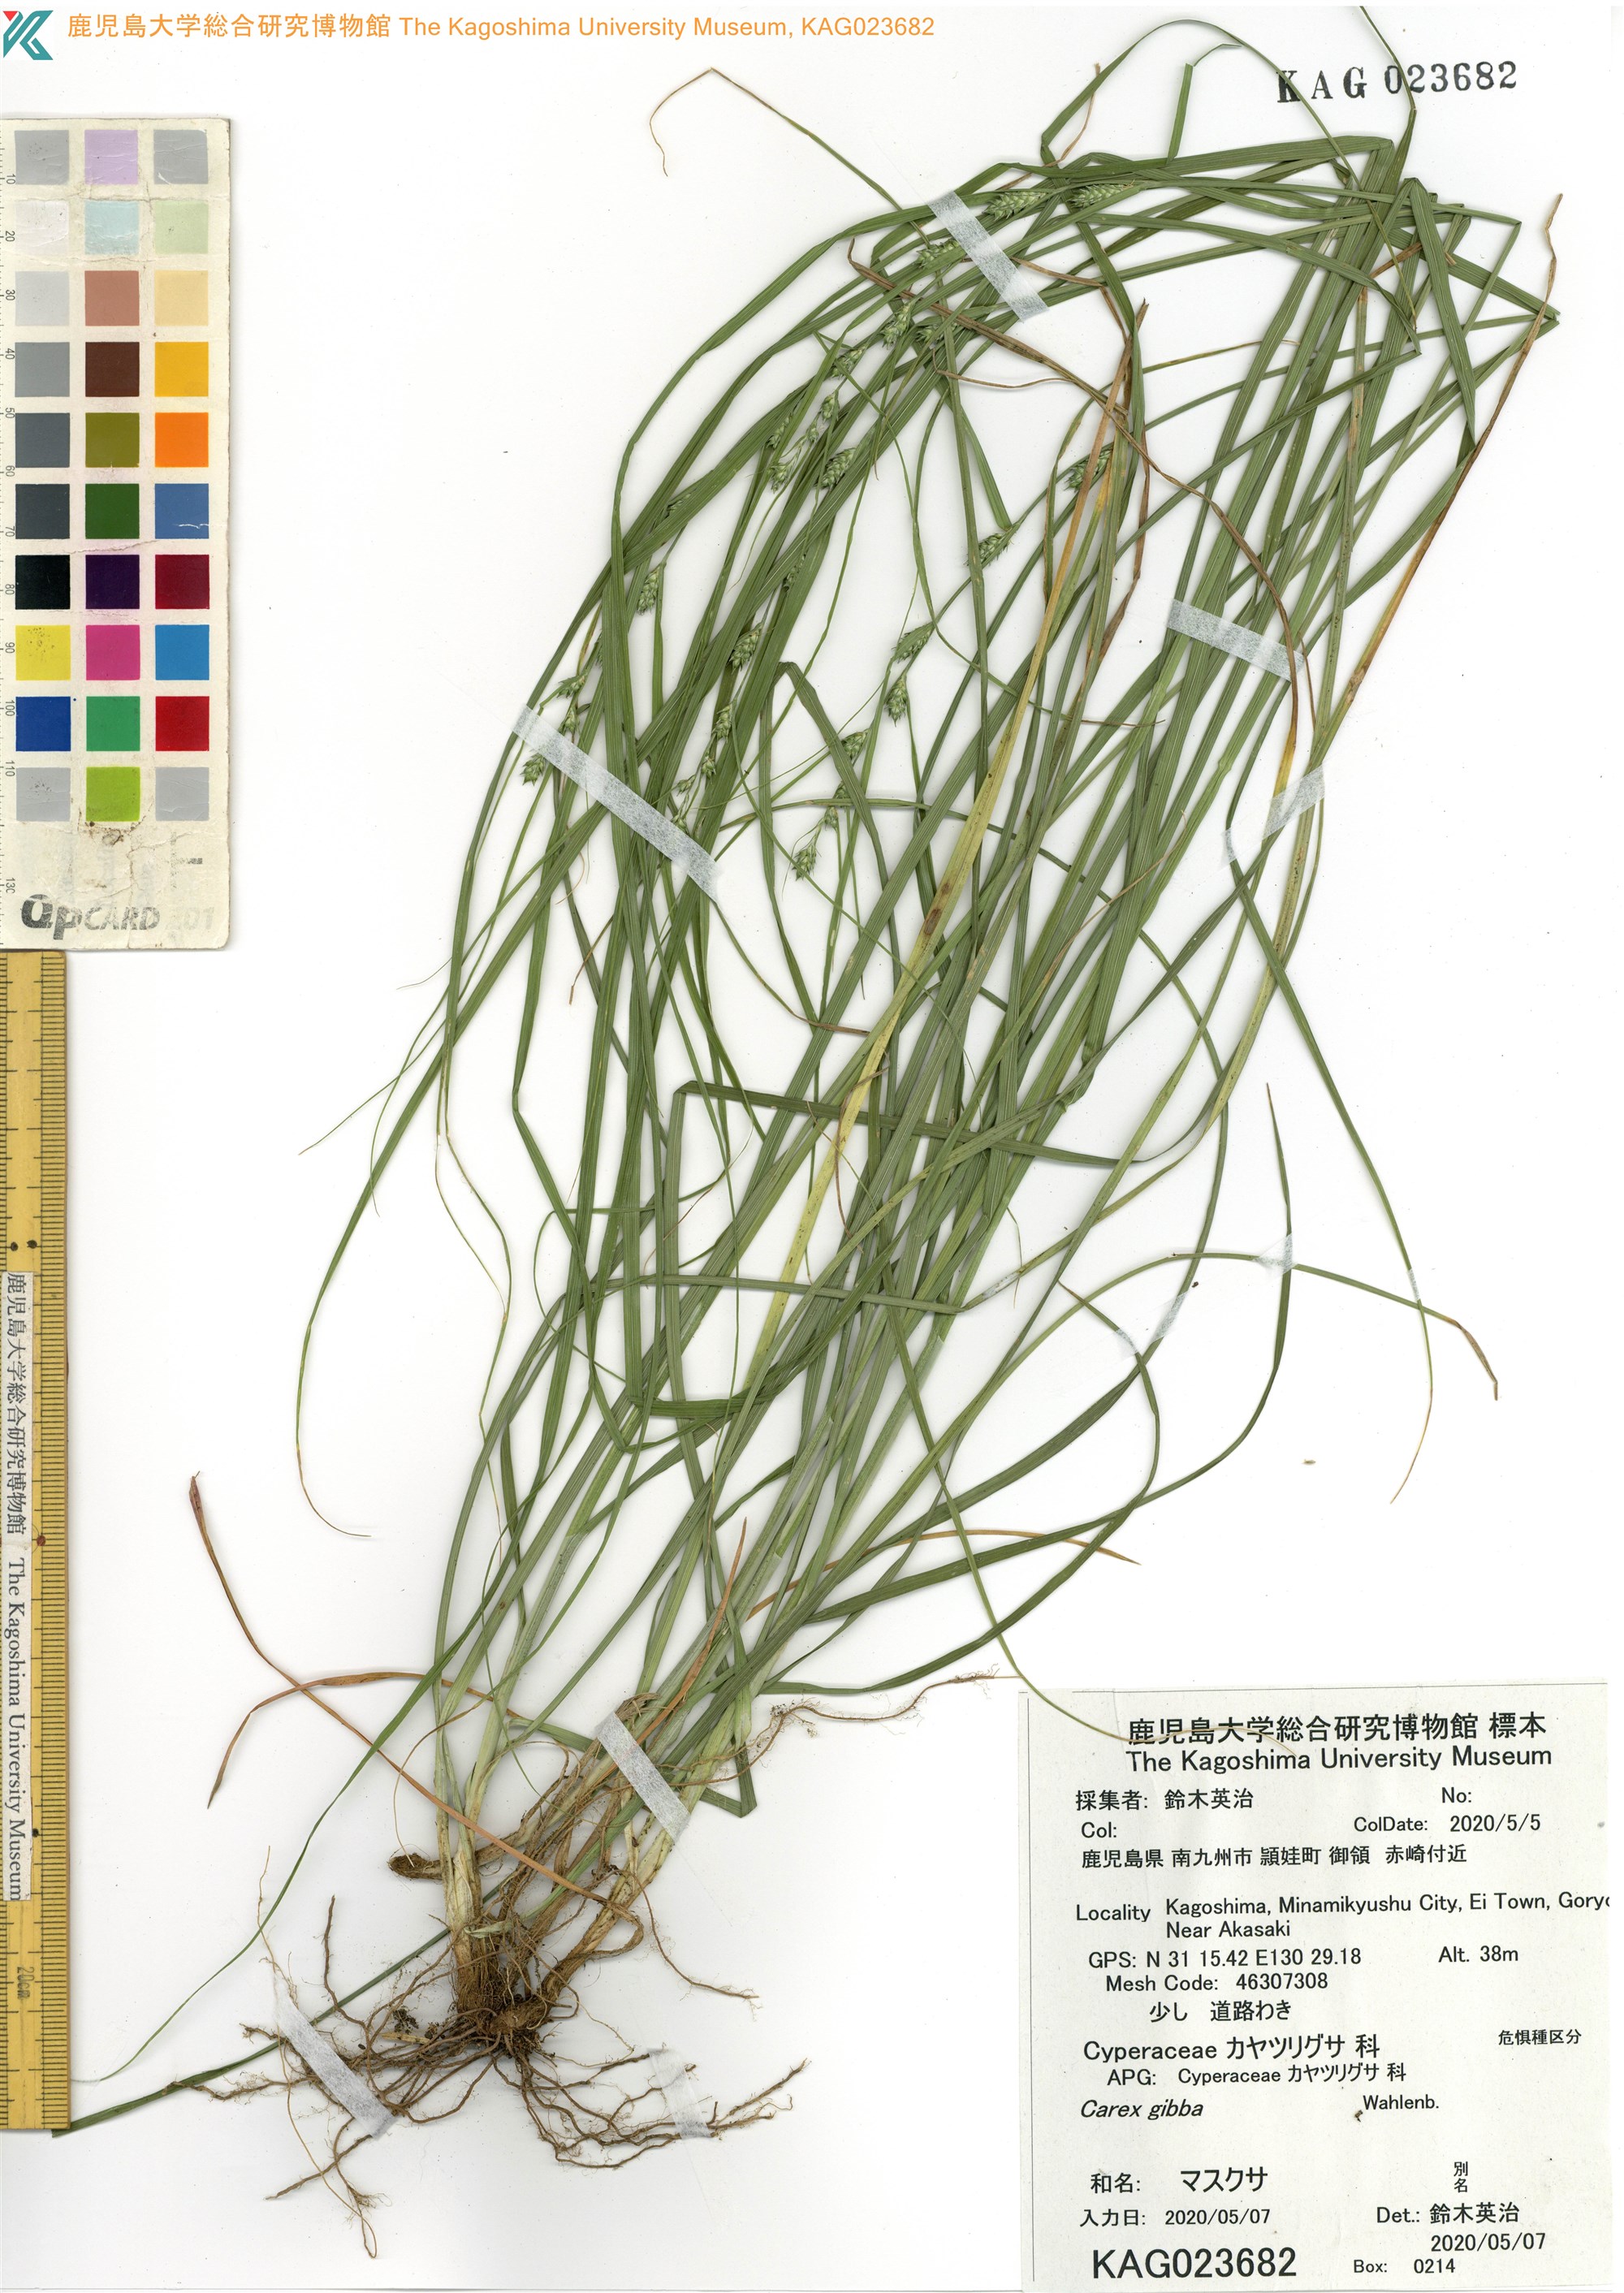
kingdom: Plantae
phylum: Tracheophyta
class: Liliopsida
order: Poales
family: Cyperaceae
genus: Carex
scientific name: Carex gibba
